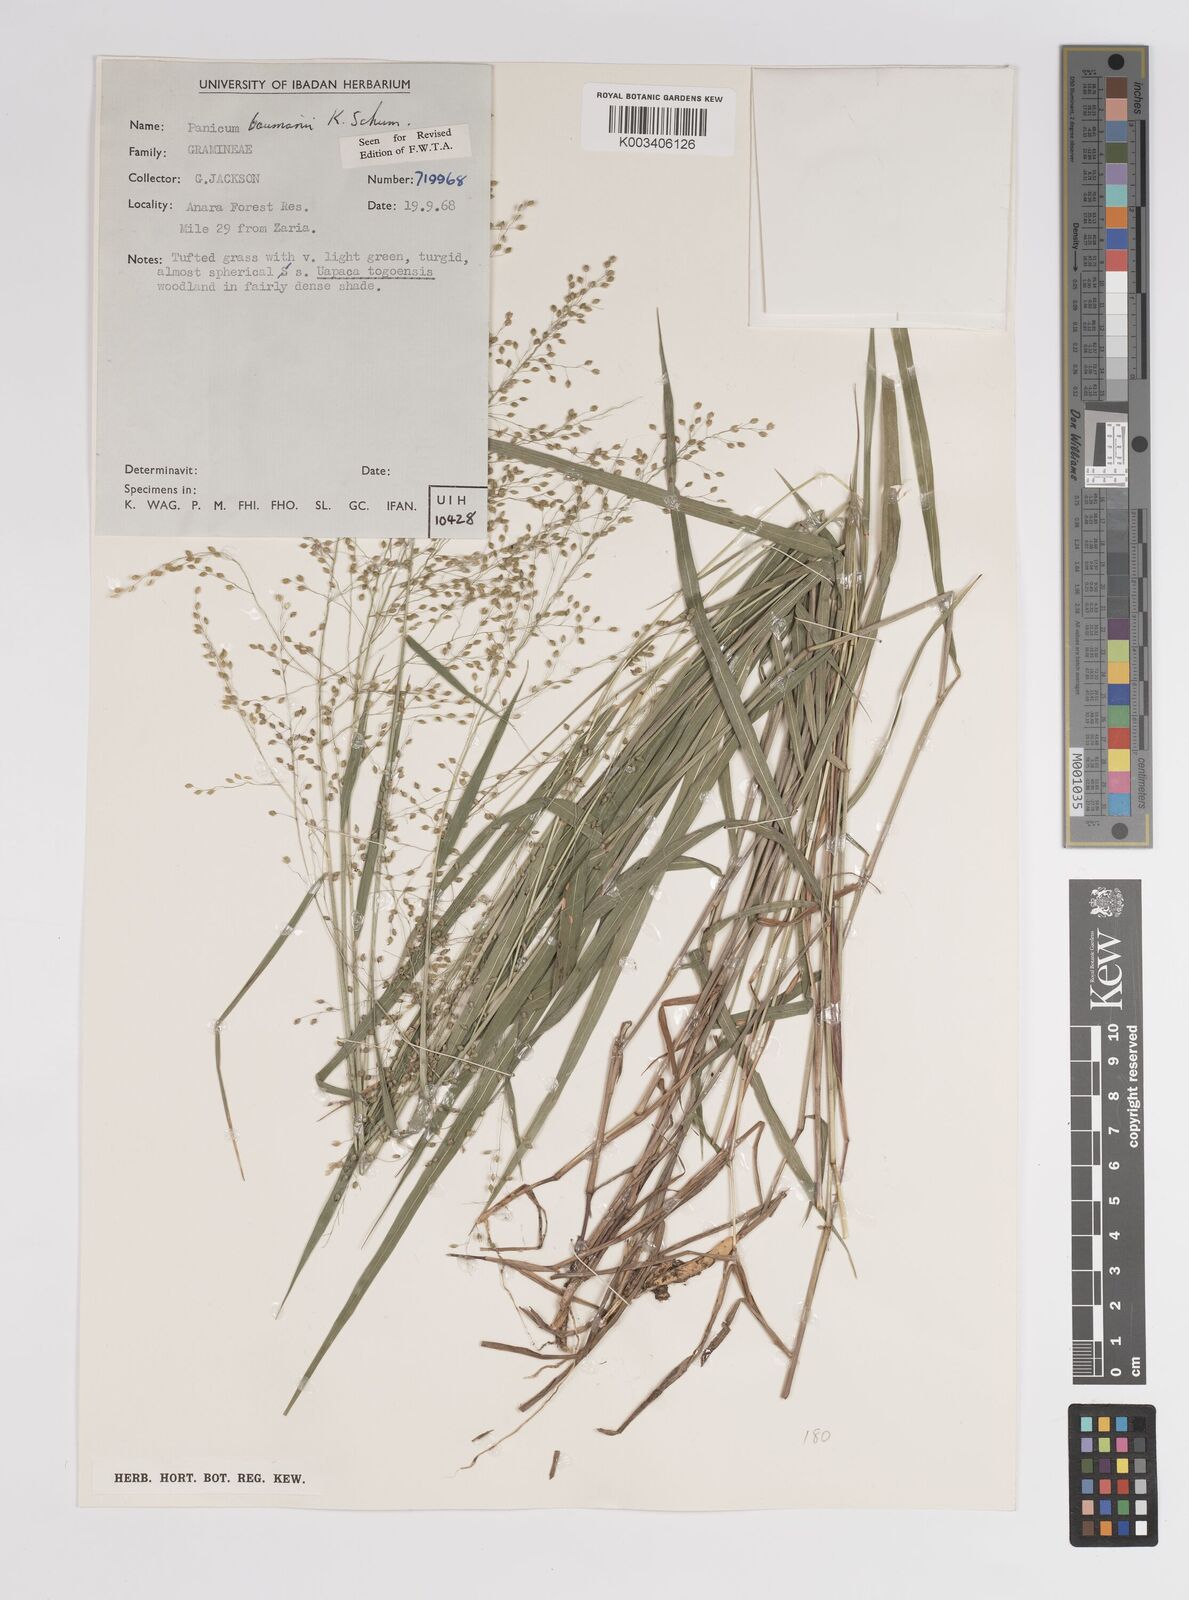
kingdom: Plantae
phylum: Tracheophyta
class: Liliopsida
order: Poales
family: Poaceae
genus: Trichanthecium
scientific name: Trichanthecium nervatum
